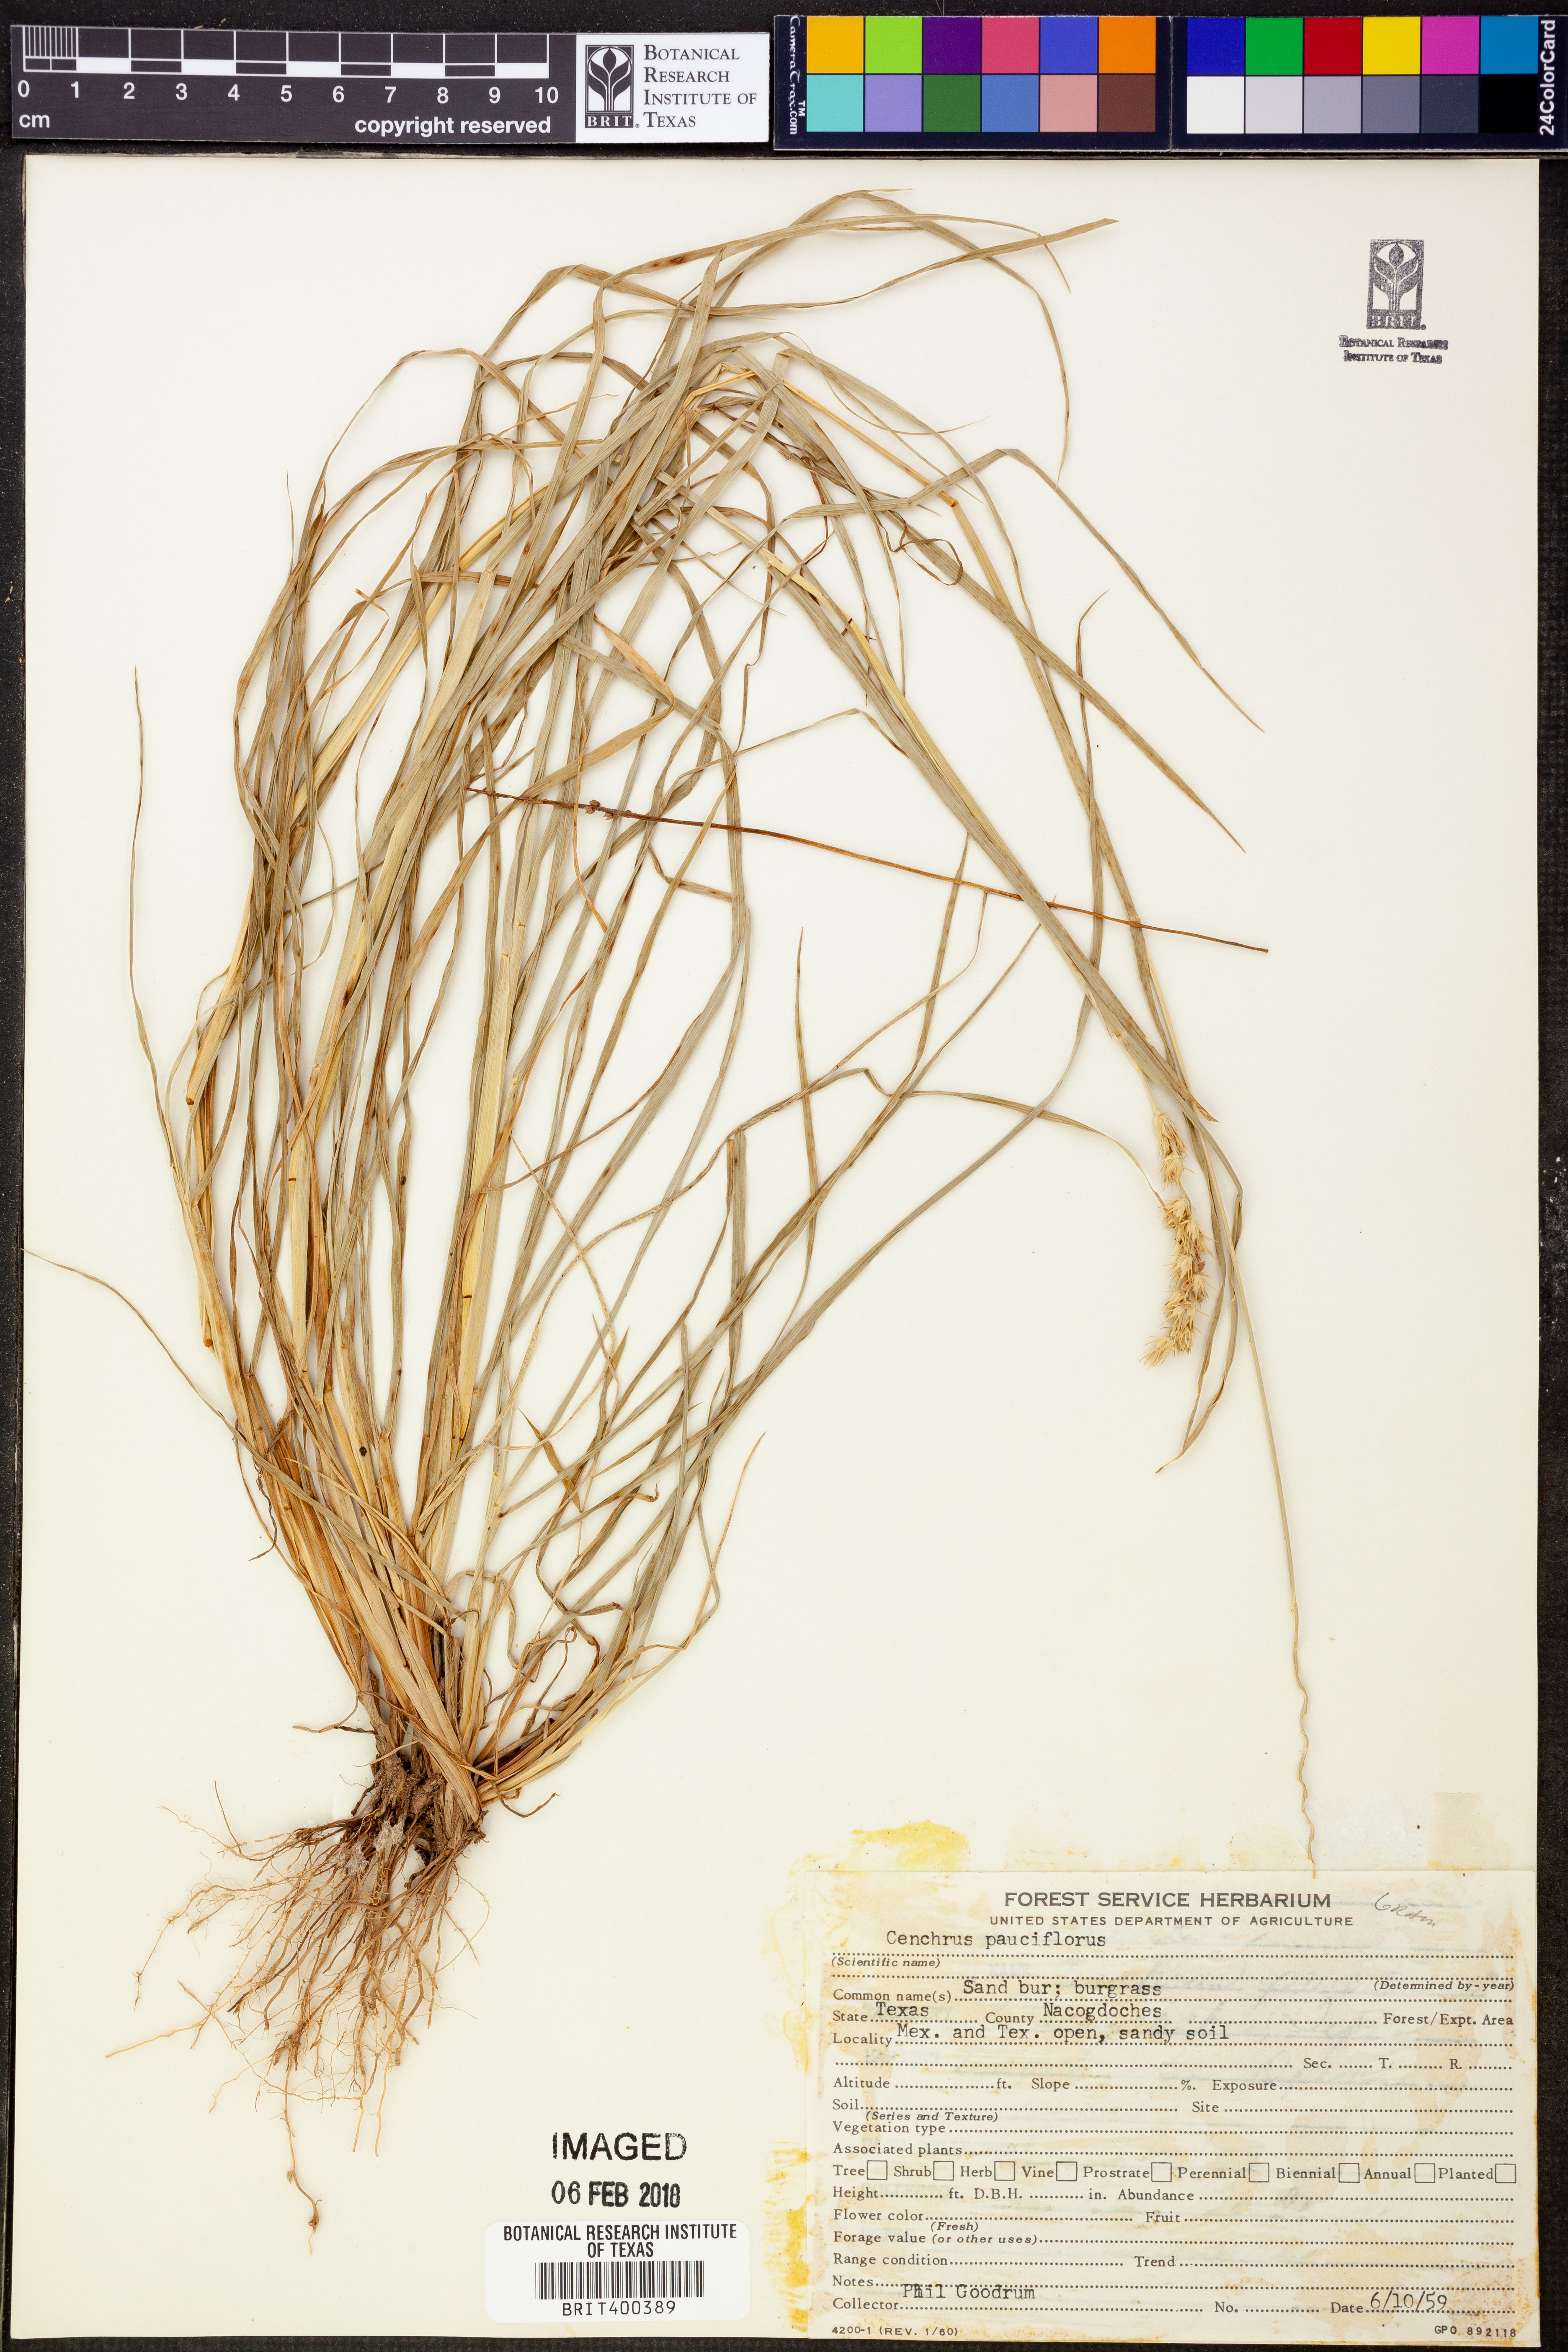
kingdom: Plantae
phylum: Tracheophyta
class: Liliopsida
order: Poales
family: Poaceae
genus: Cenchrus
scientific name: Cenchrus spinifex
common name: Coast sandbur
